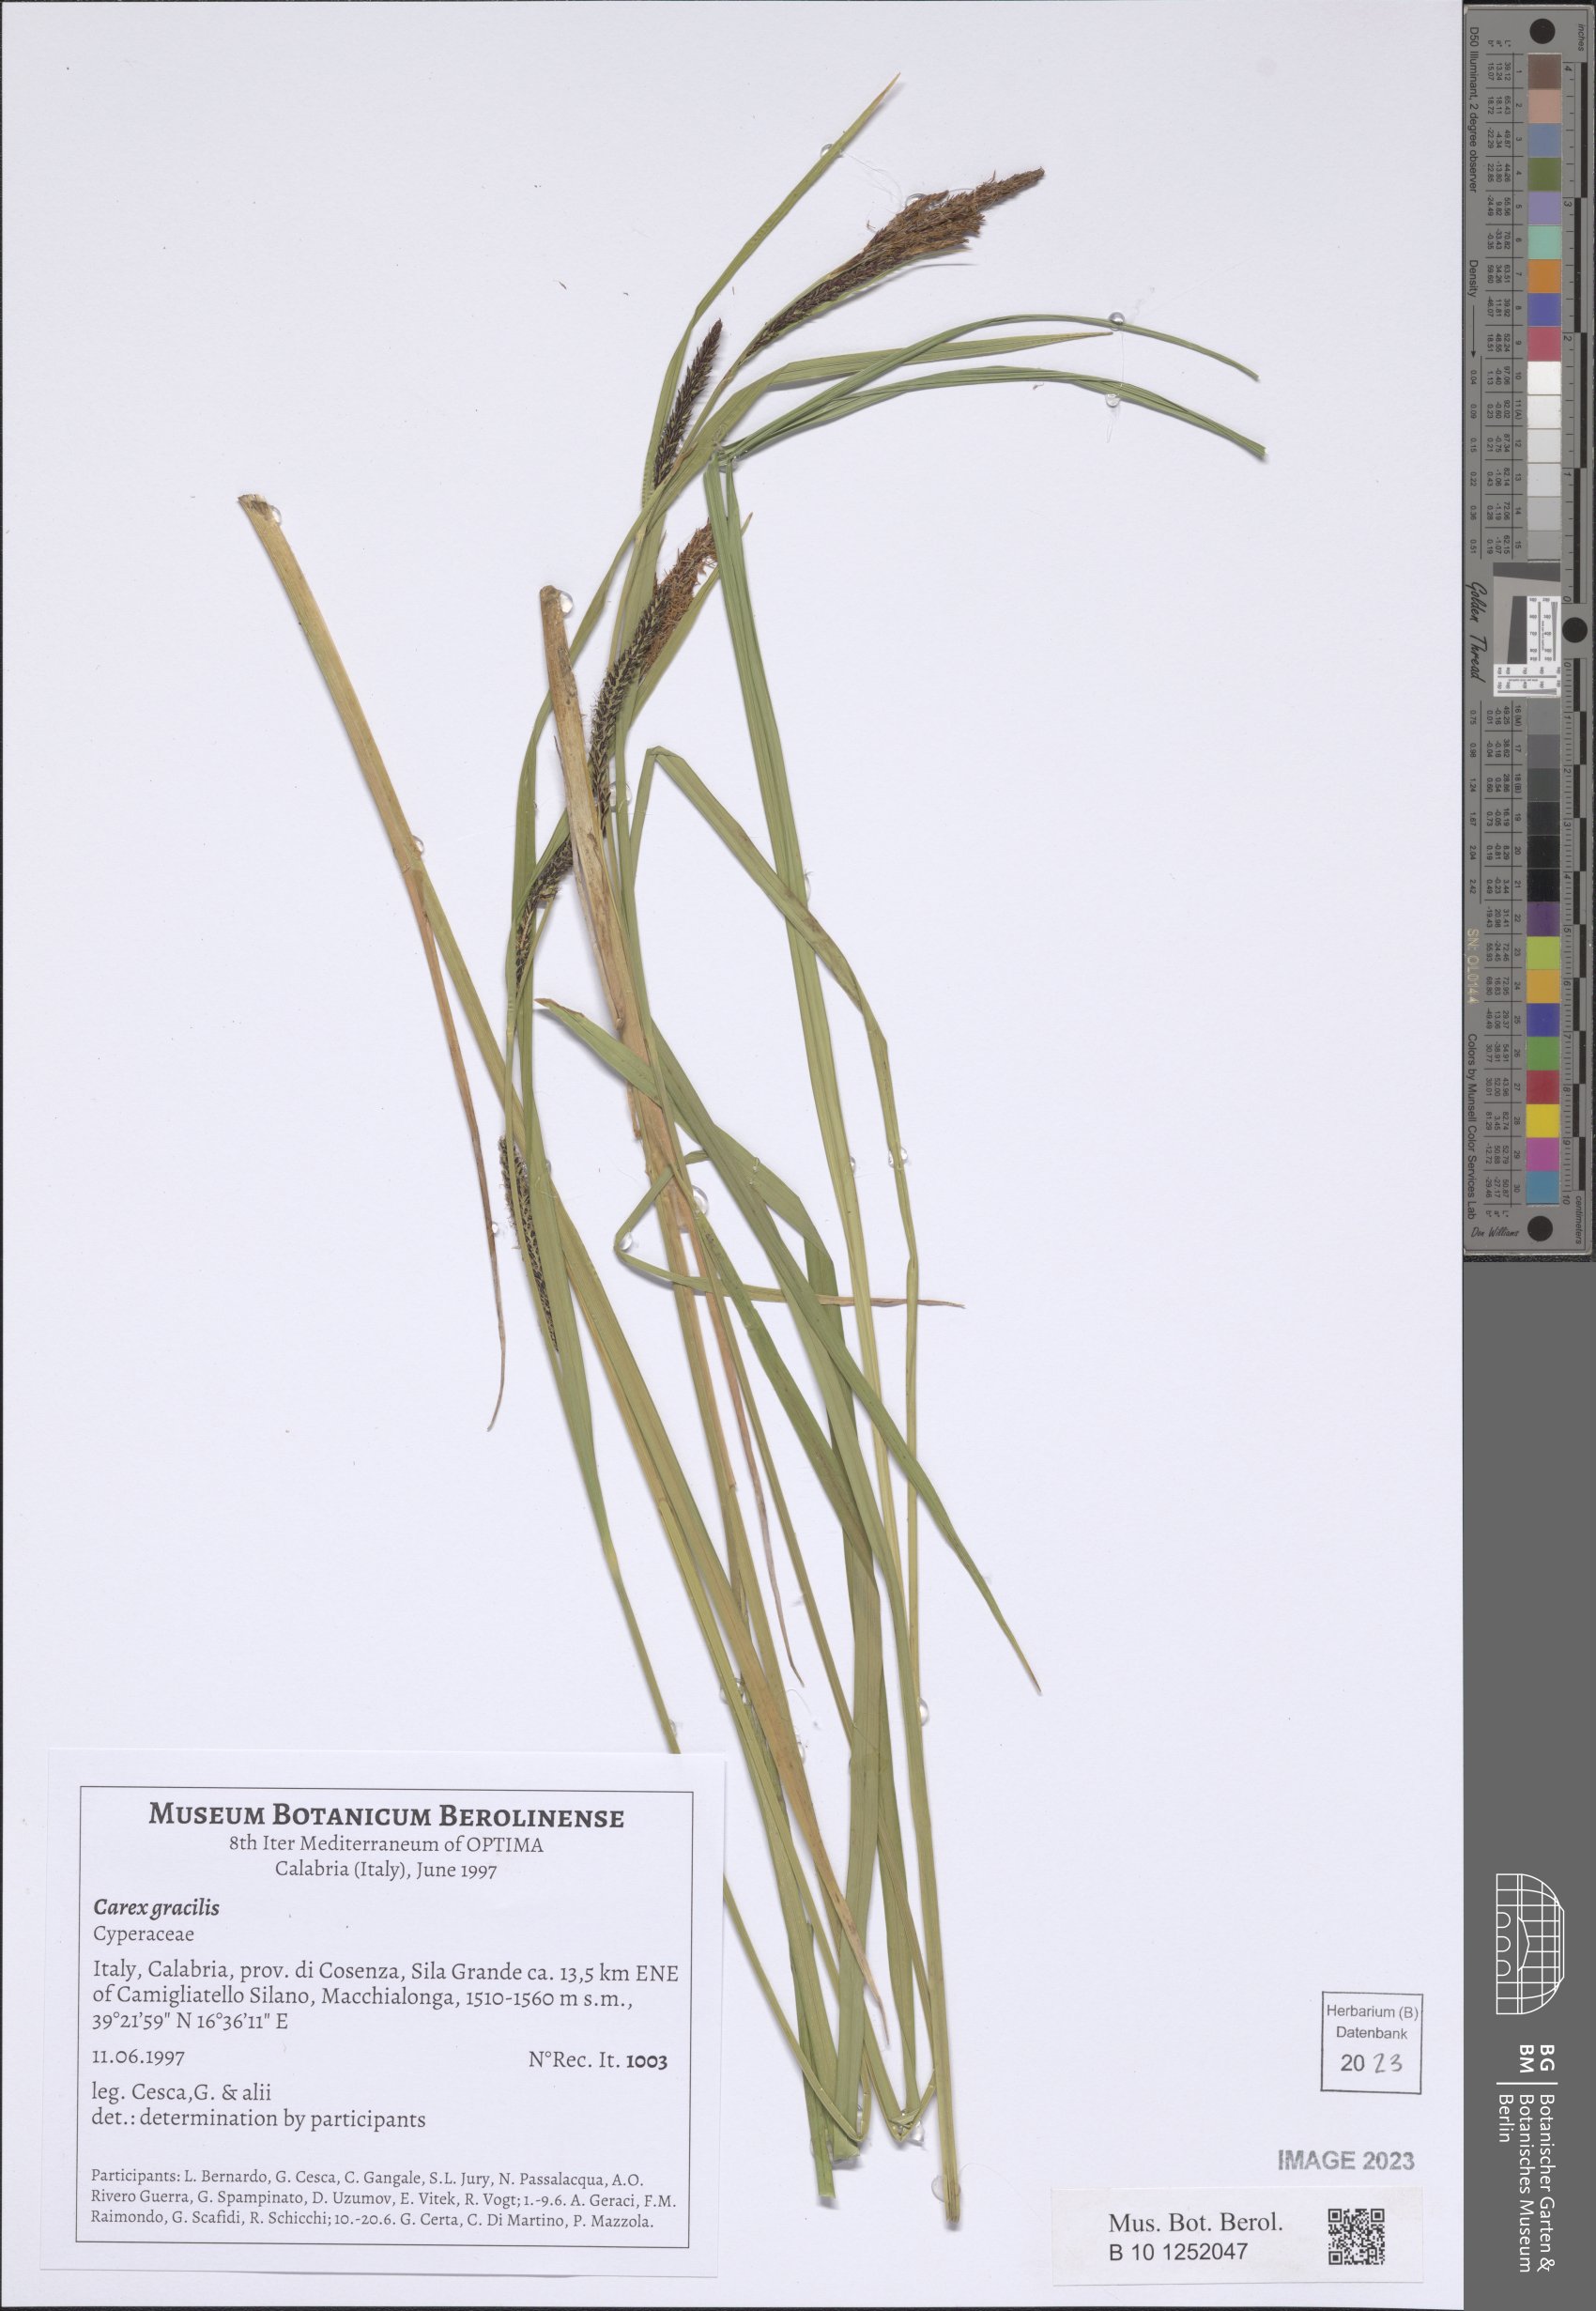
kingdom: Plantae
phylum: Tracheophyta
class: Liliopsida
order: Poales
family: Cyperaceae
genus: Carex
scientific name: Carex acuta
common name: Slender tufted-sedge
